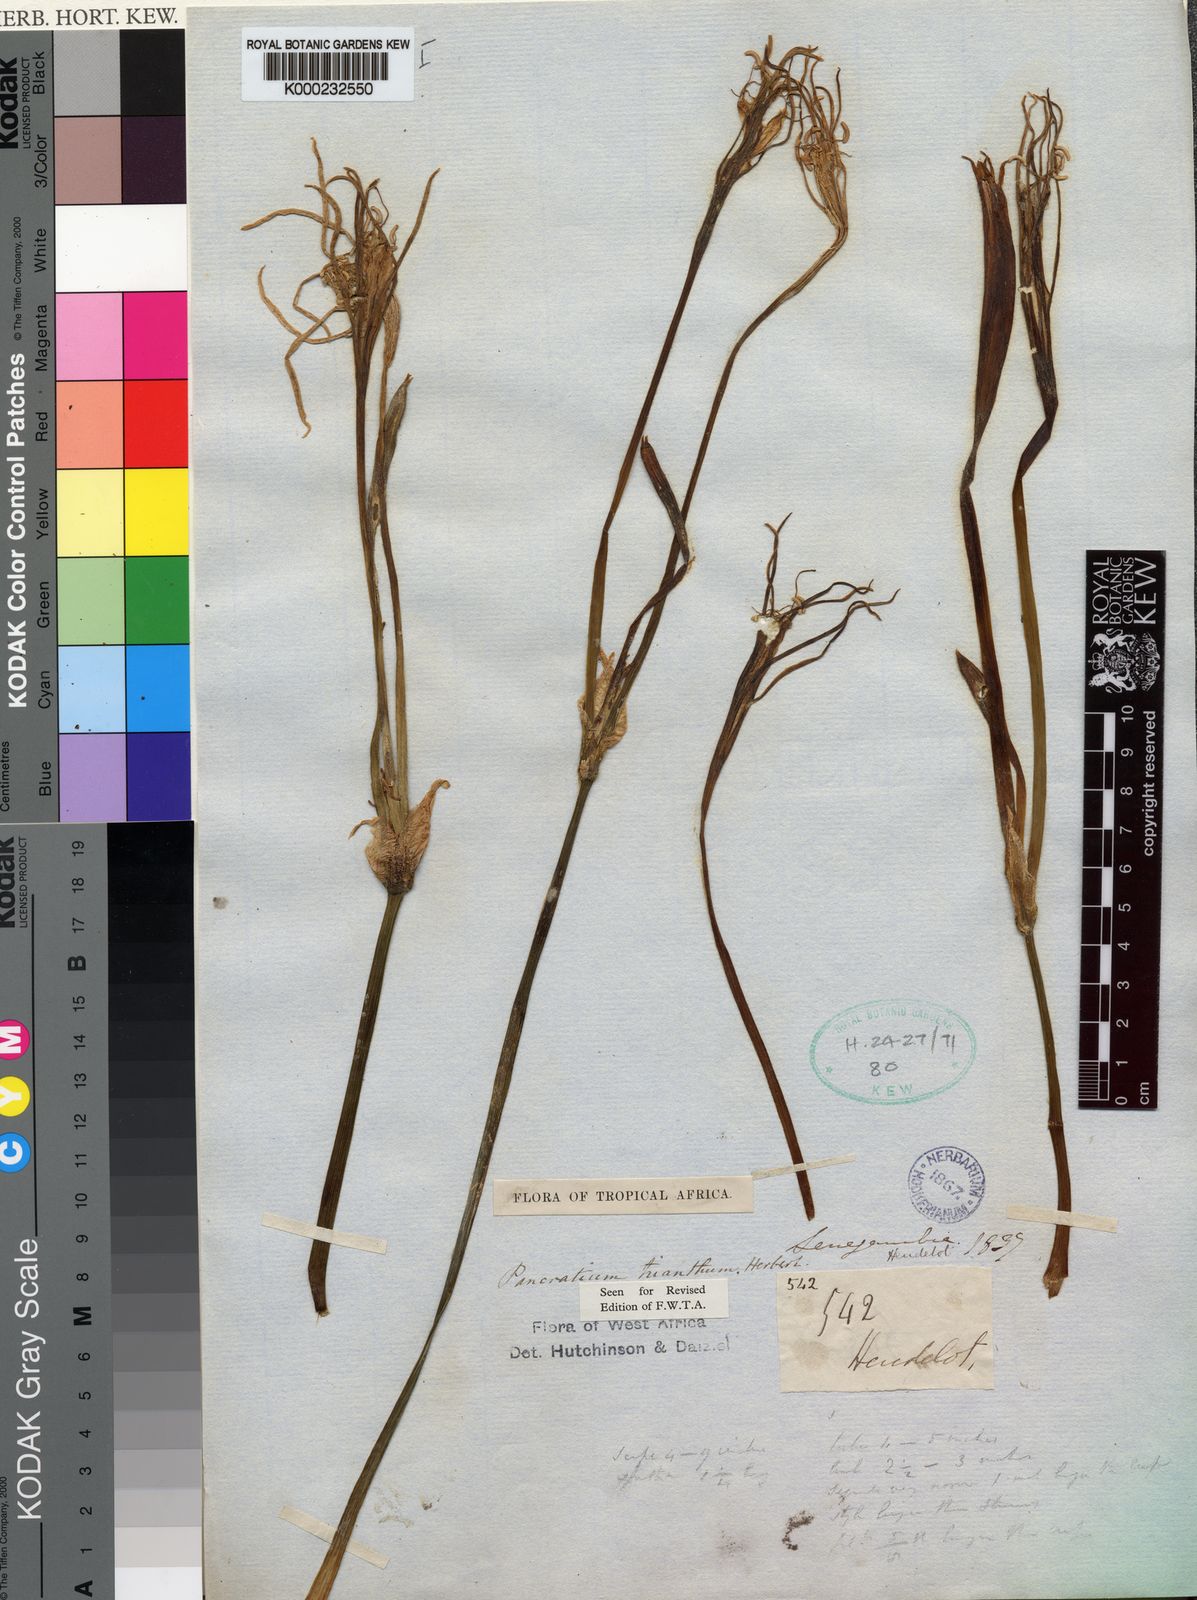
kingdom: Plantae
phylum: Tracheophyta
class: Liliopsida
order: Asparagales
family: Amaryllidaceae
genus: Pancratium
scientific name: Pancratium trianthum
